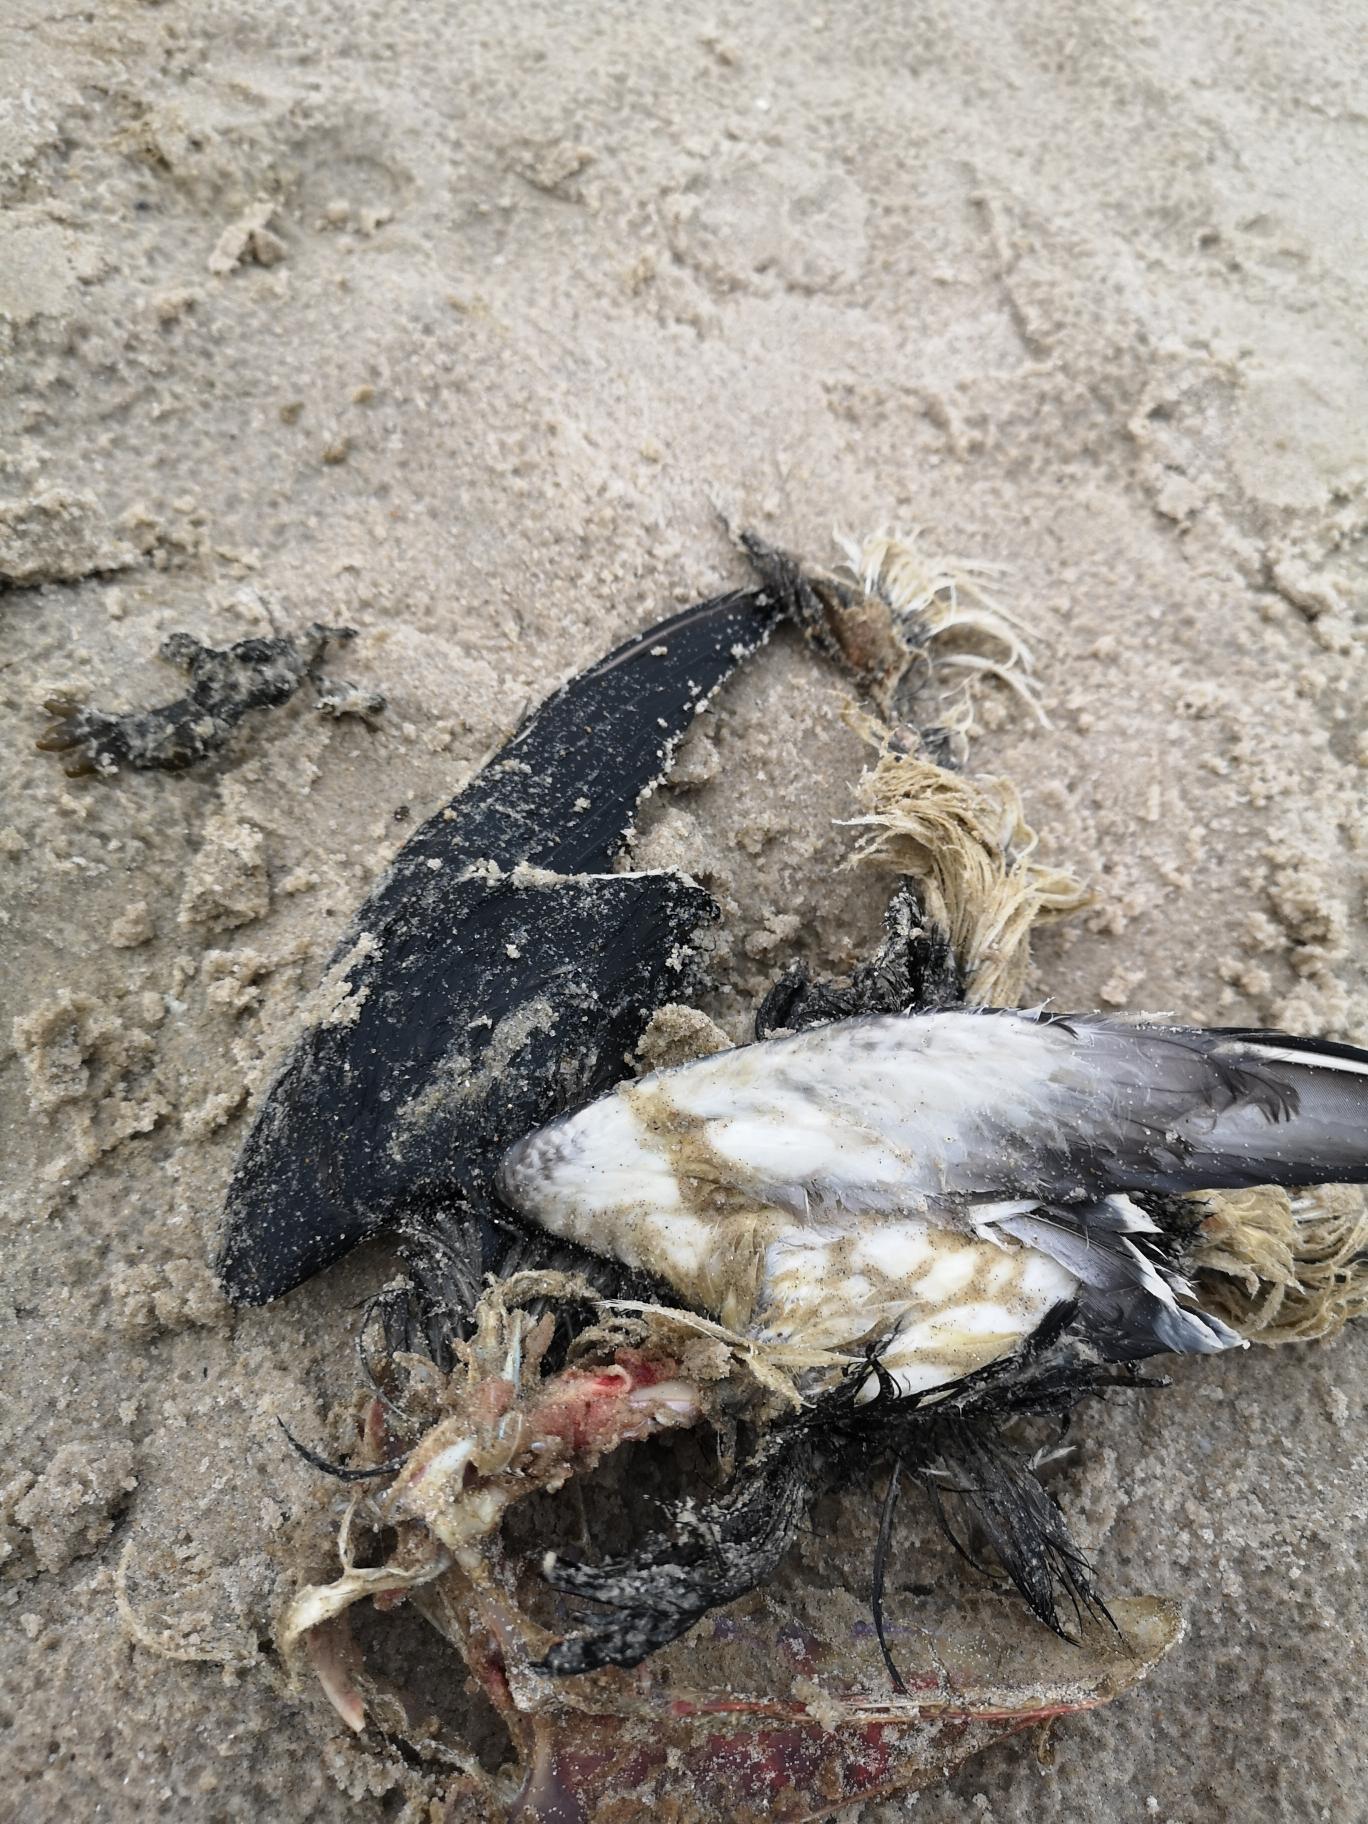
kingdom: Animalia
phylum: Chordata
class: Aves
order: Charadriiformes
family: Alcidae
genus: Uria
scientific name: Uria aalge
